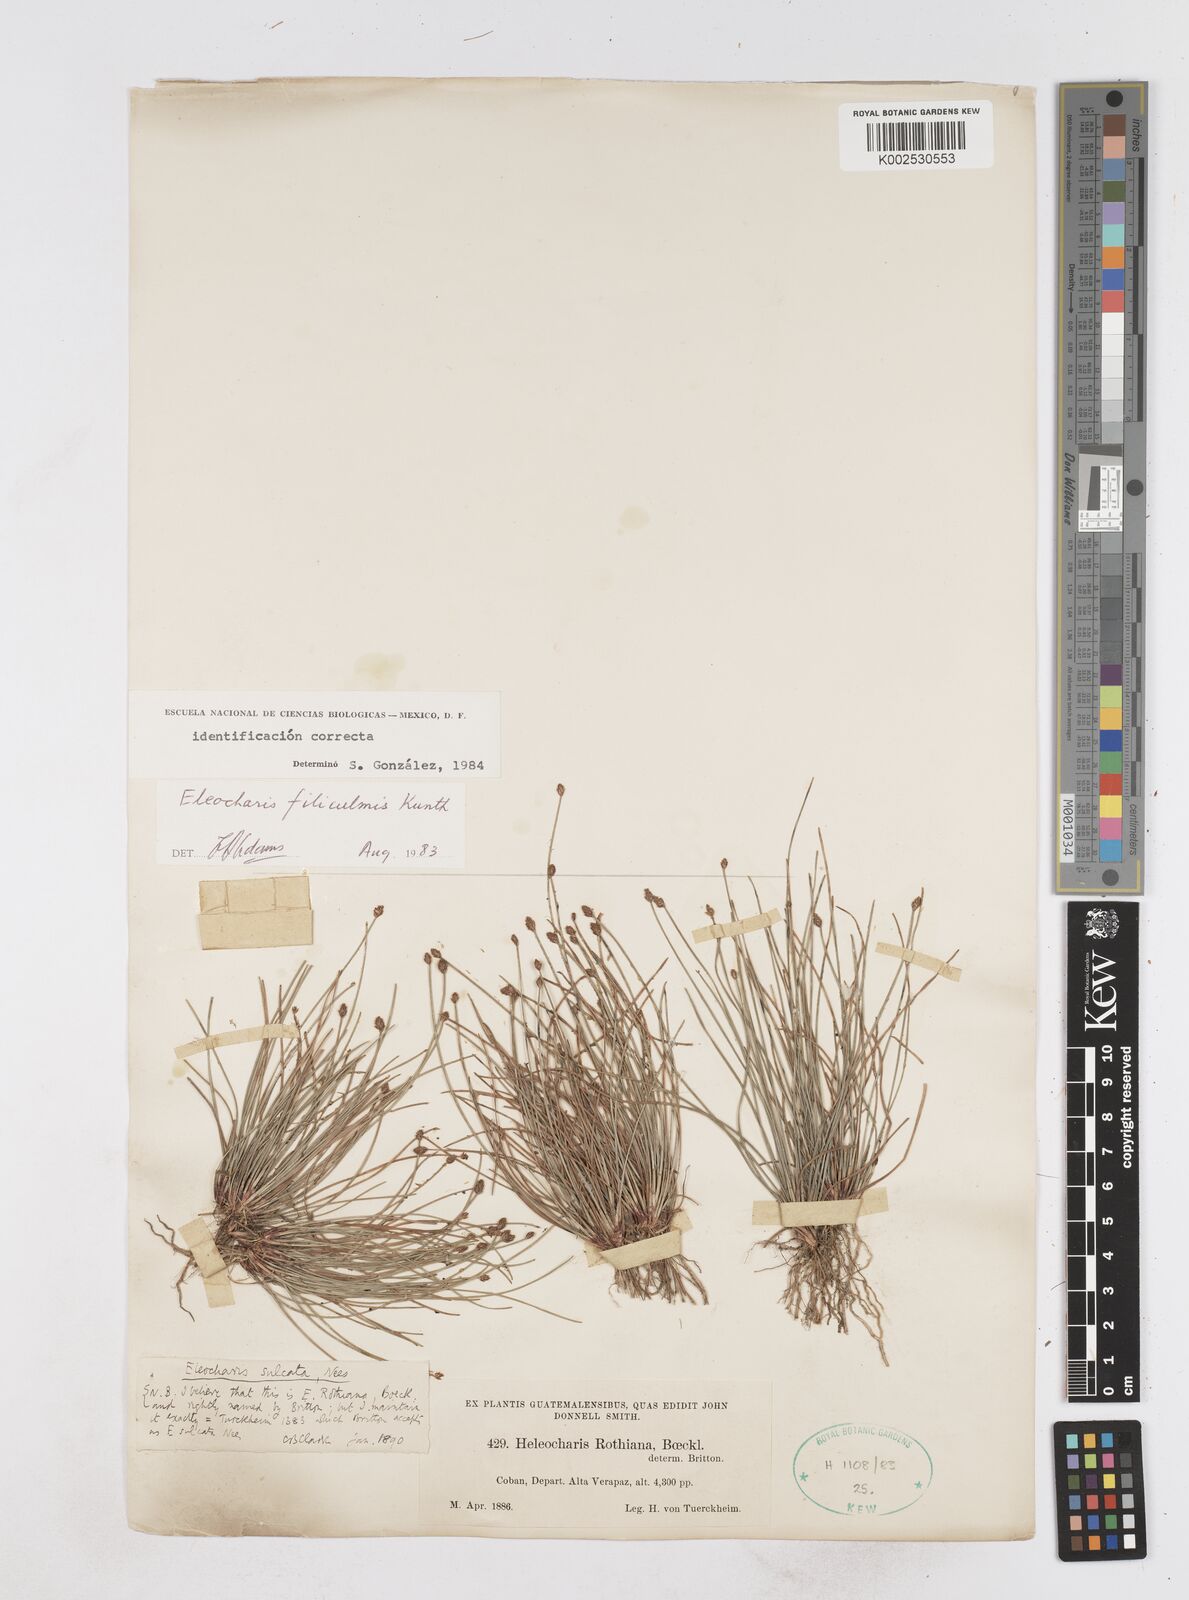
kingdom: Plantae
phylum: Tracheophyta
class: Liliopsida
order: Poales
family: Cyperaceae
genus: Eleocharis
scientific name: Eleocharis filiculmis
